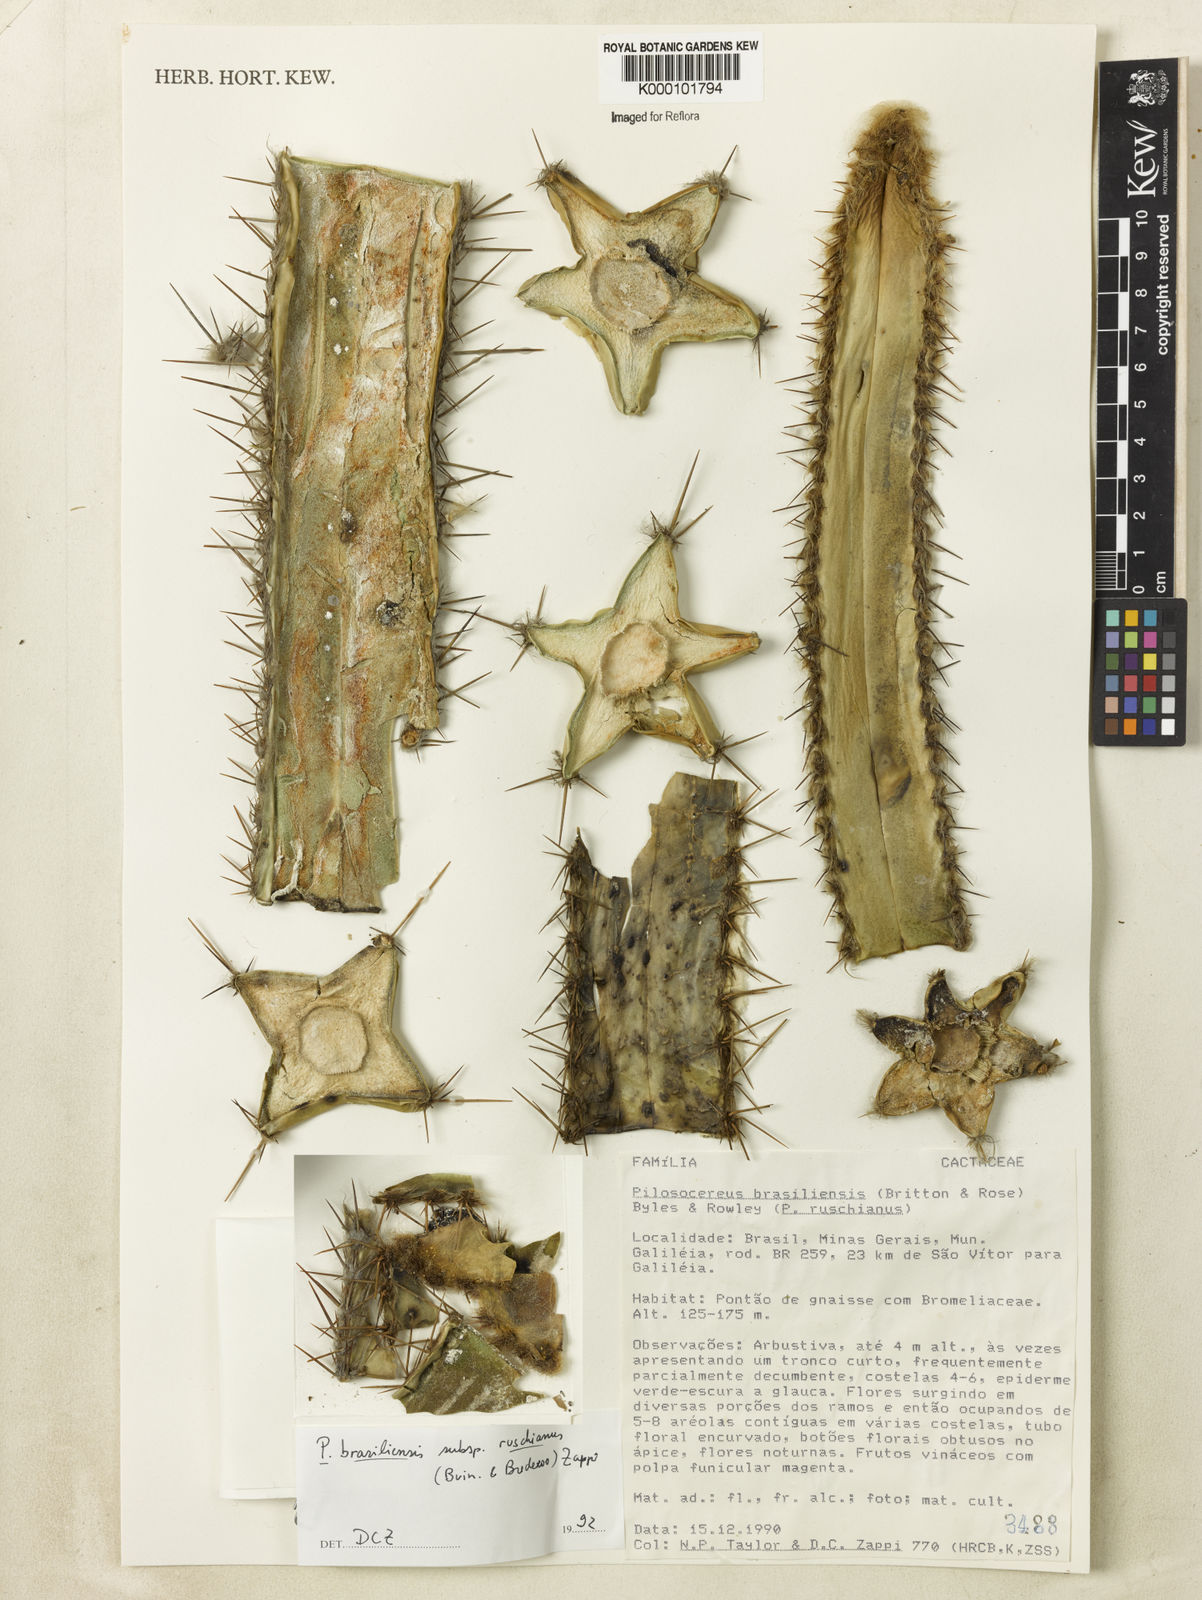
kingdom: Plantae
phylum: Tracheophyta
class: Magnoliopsida
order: Caryophyllales
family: Cactaceae
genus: Pilosocereus
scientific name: Pilosocereus brasiliensis
